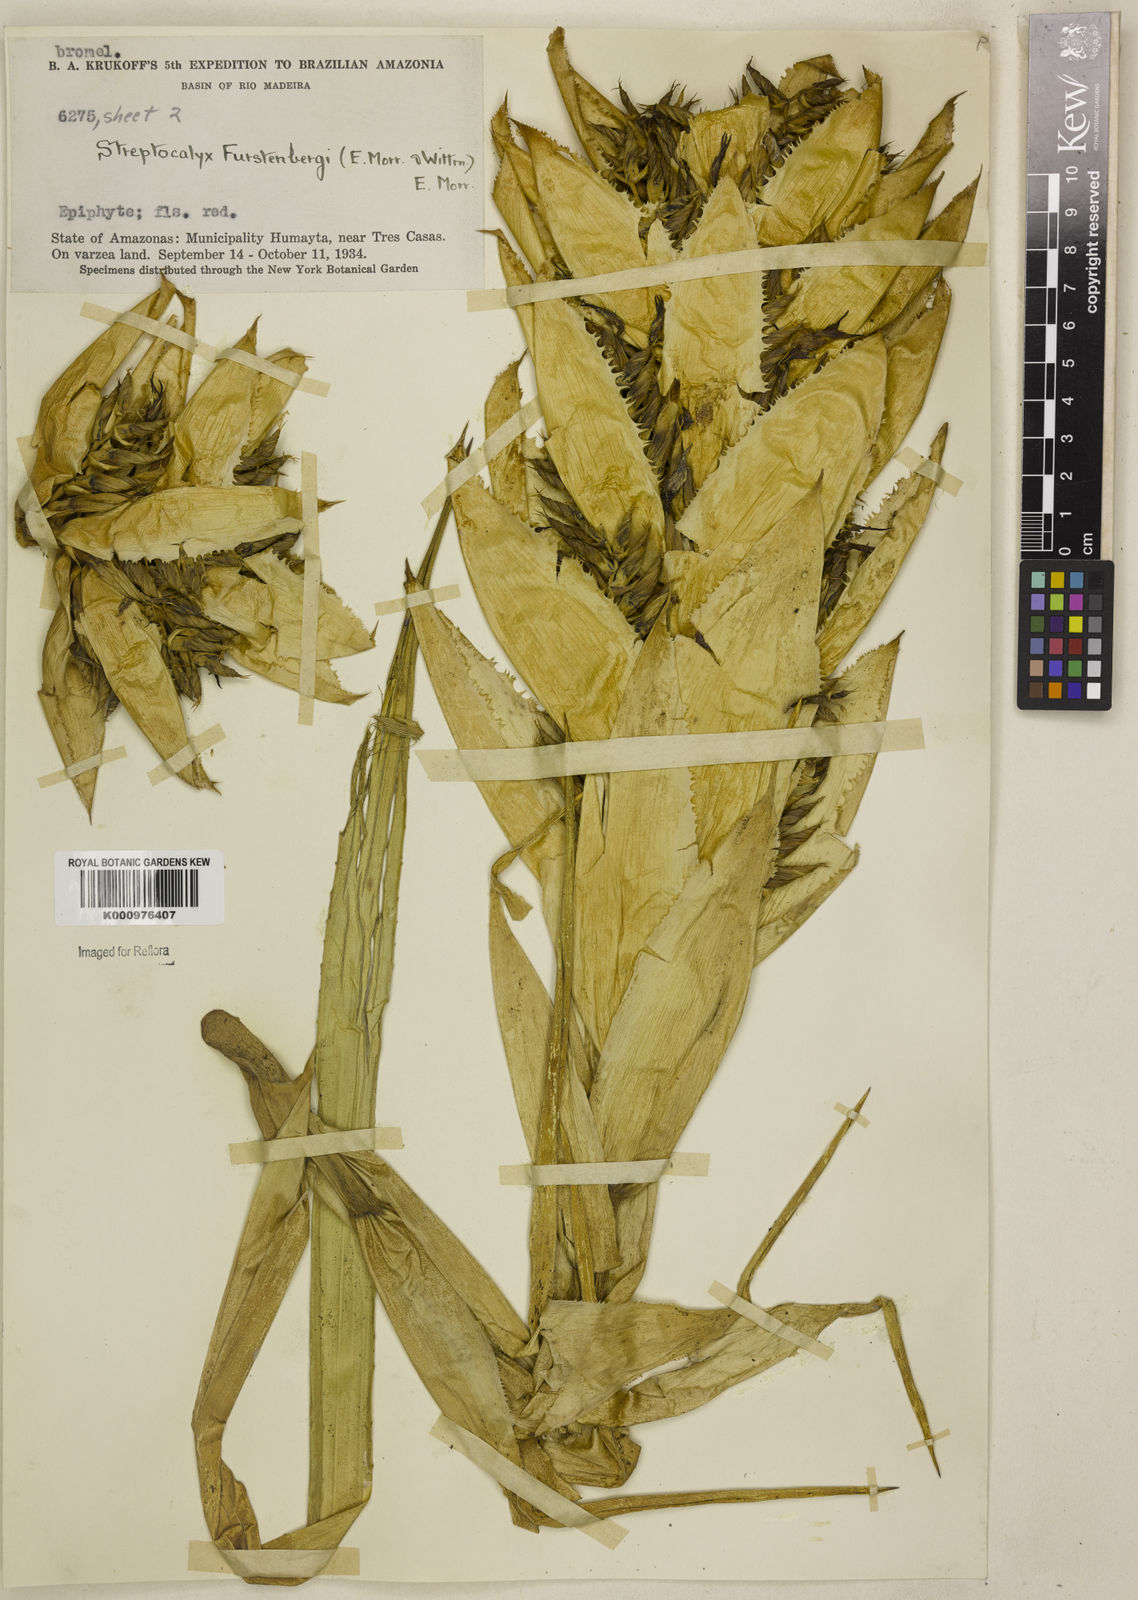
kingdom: Plantae
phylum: Tracheophyta
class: Liliopsida
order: Poales
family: Bromeliaceae
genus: Aechmea
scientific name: Aechmea vallerandii
